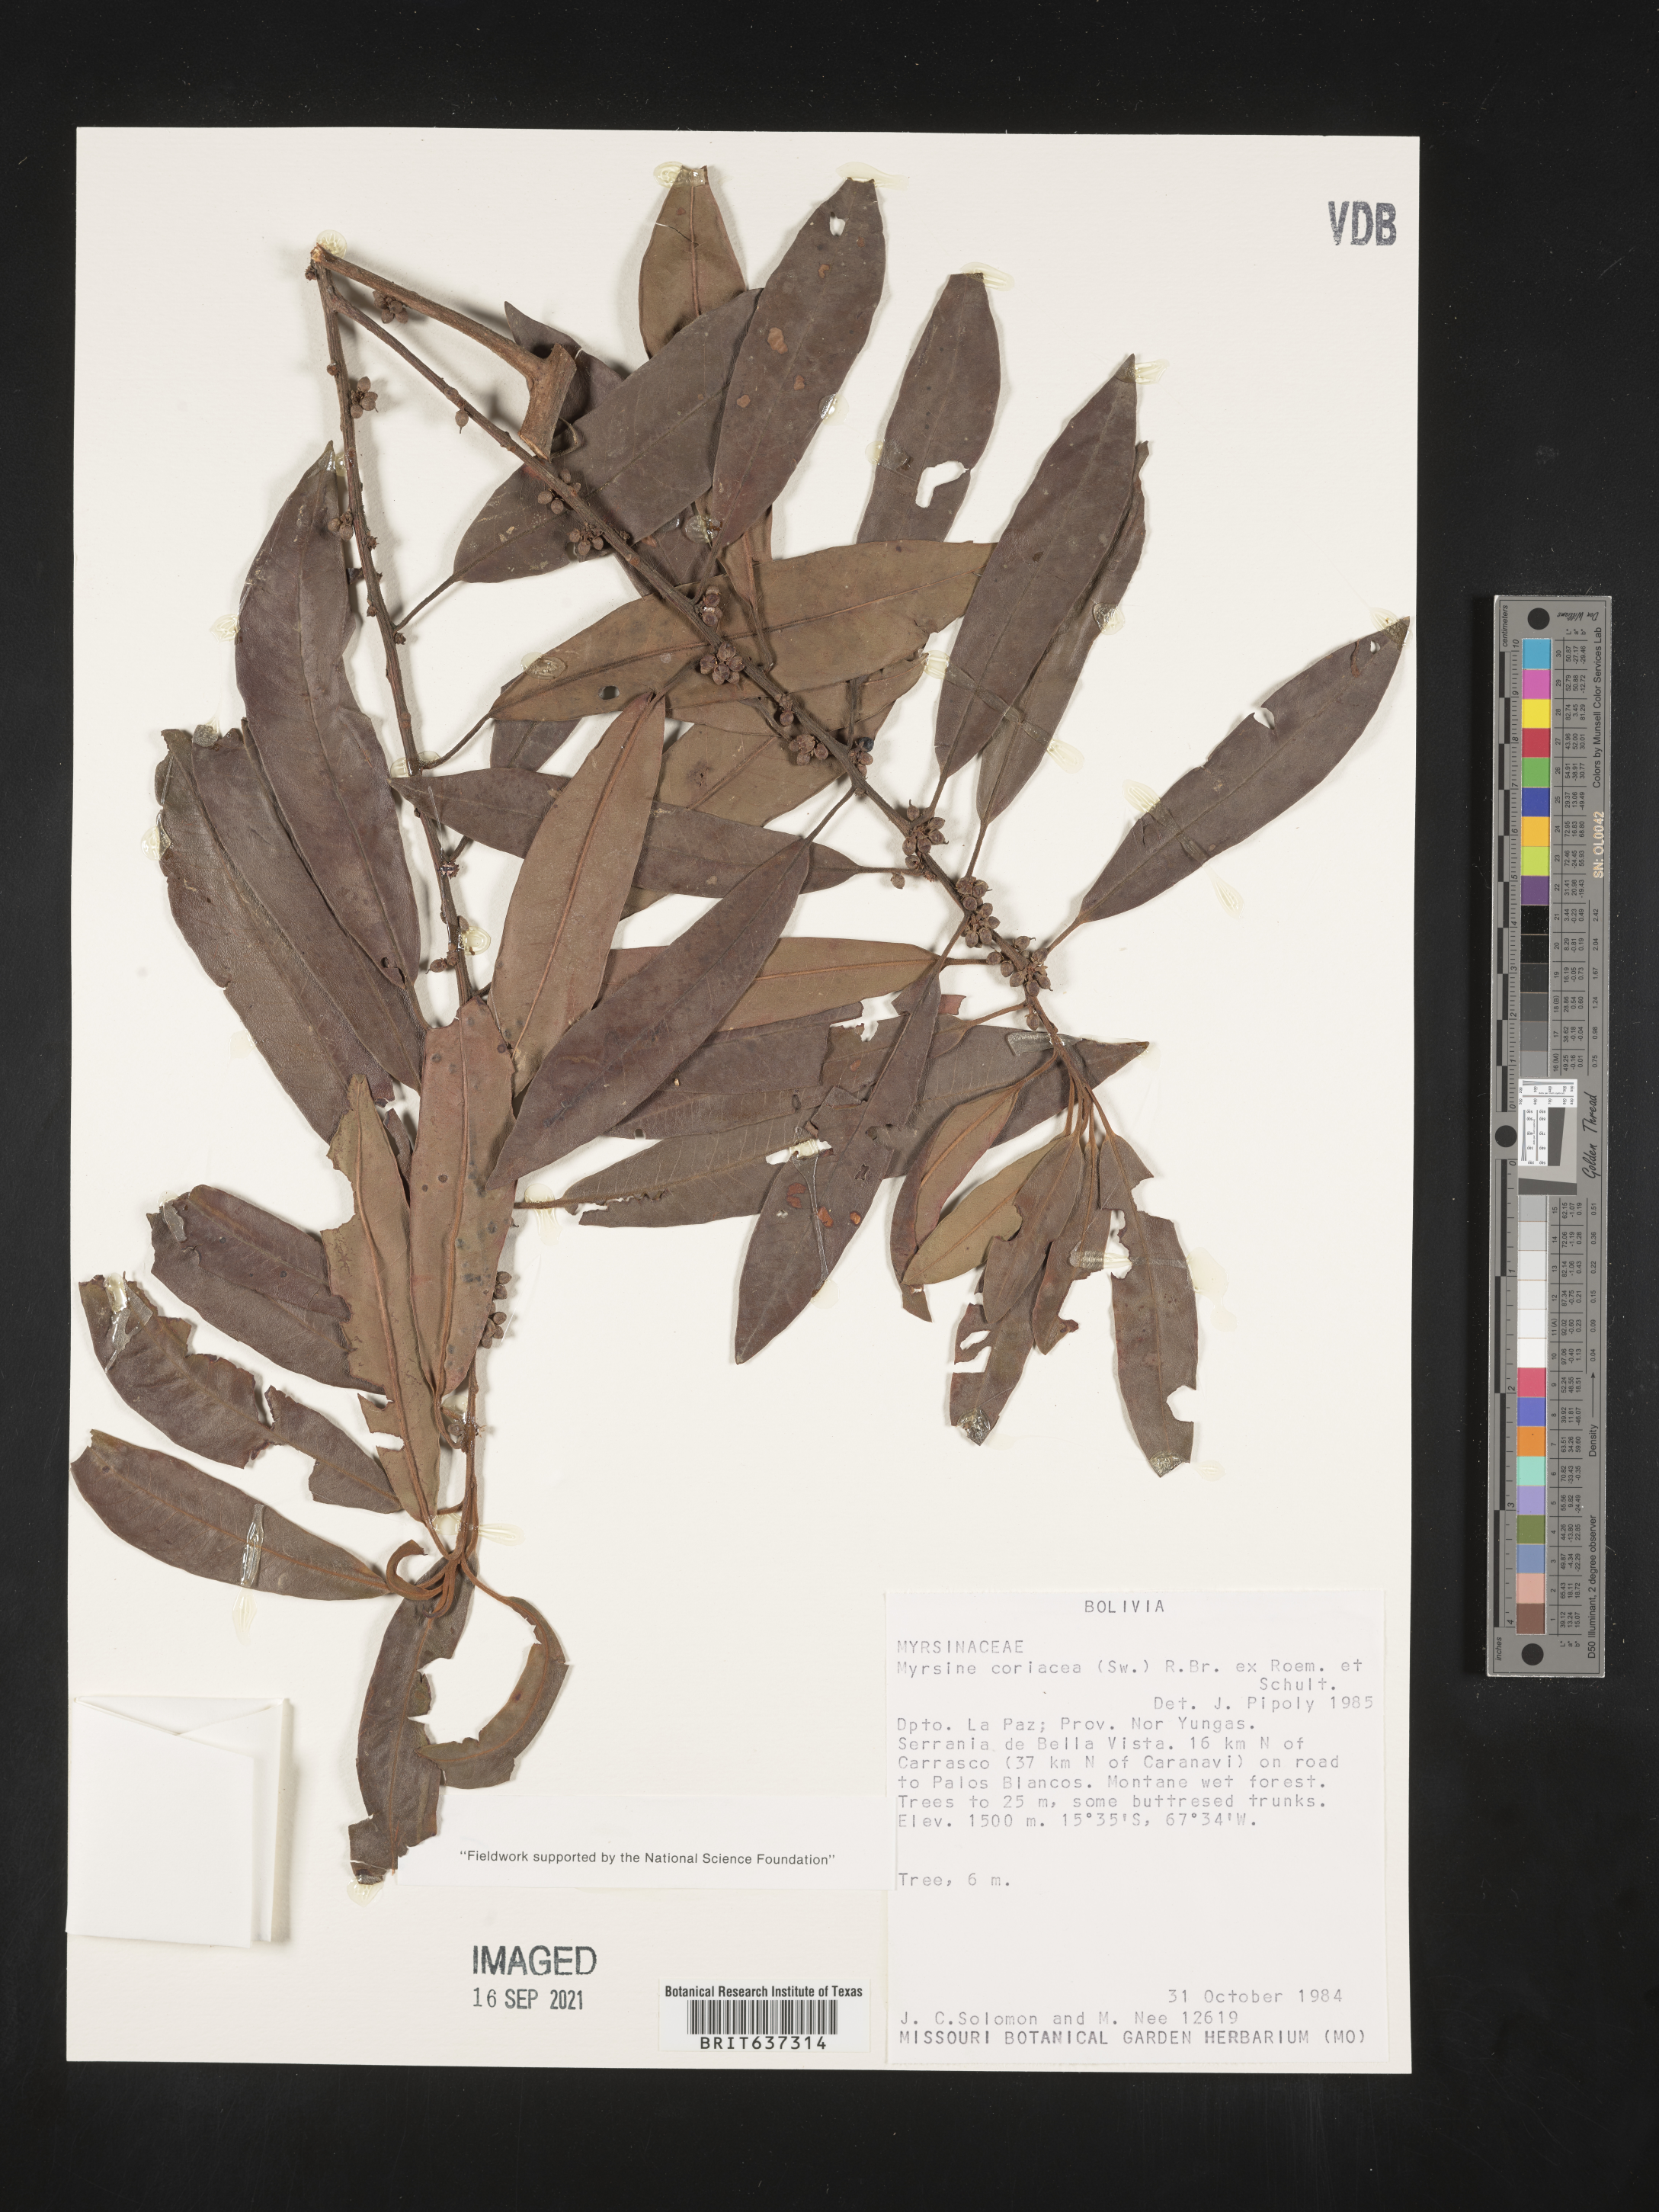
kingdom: Plantae
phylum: Tracheophyta
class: Magnoliopsida
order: Ericales
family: Primulaceae
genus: Myrsine
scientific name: Myrsine
